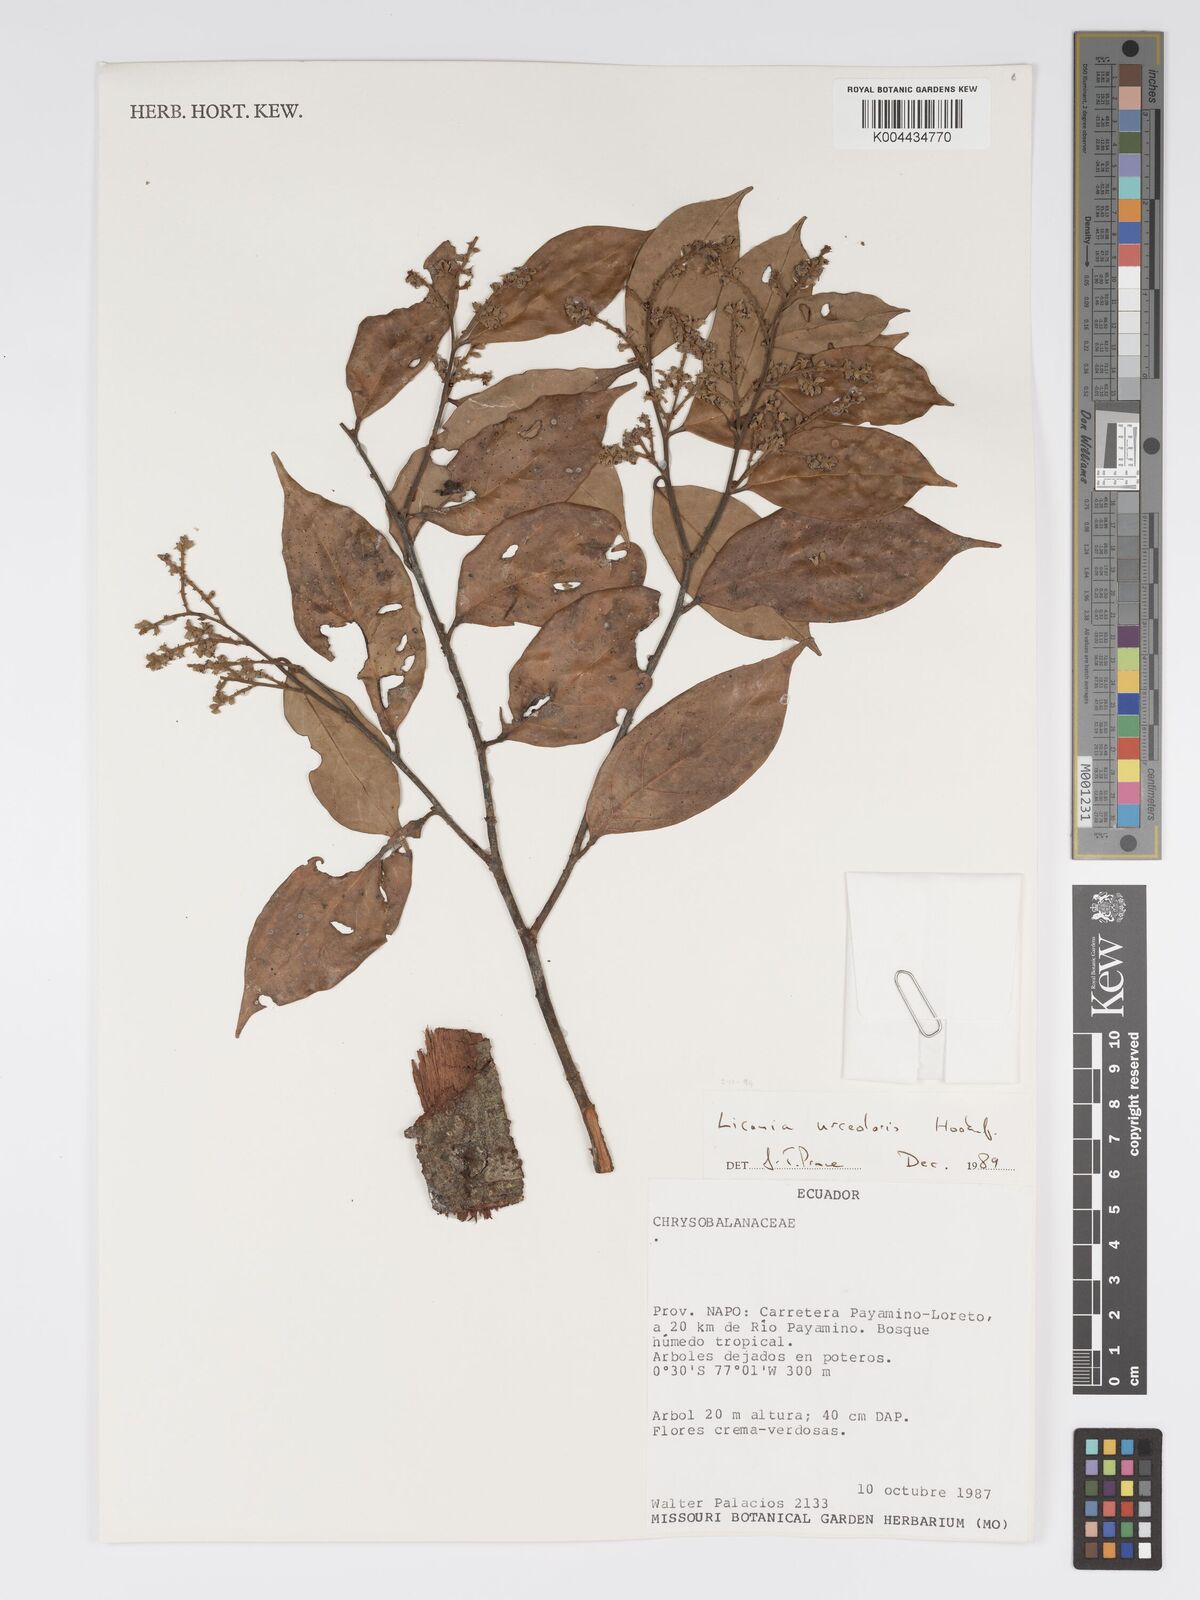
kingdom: Plantae
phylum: Tracheophyta
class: Magnoliopsida
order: Malpighiales
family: Chrysobalanaceae
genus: Licania
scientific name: Licania urceolaris
